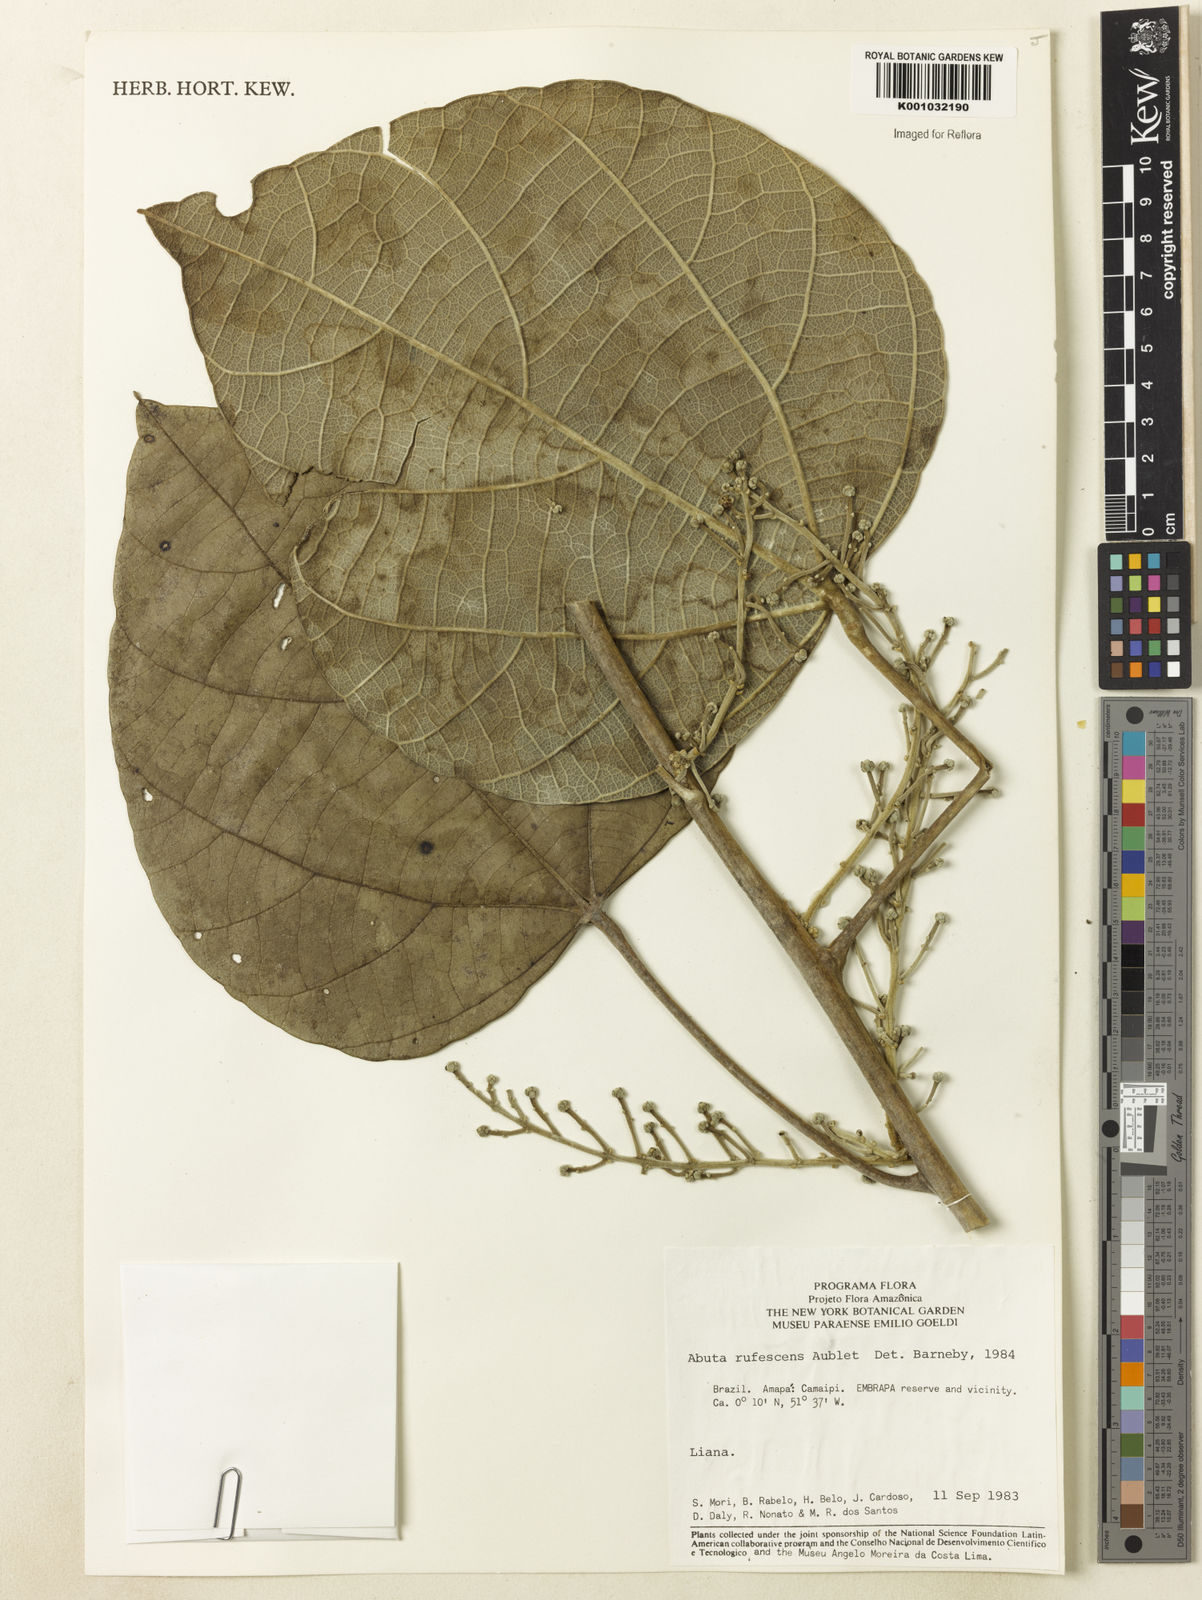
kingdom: Plantae
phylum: Tracheophyta
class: Magnoliopsida
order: Ranunculales
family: Menispermaceae
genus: Abuta
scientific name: Abuta
